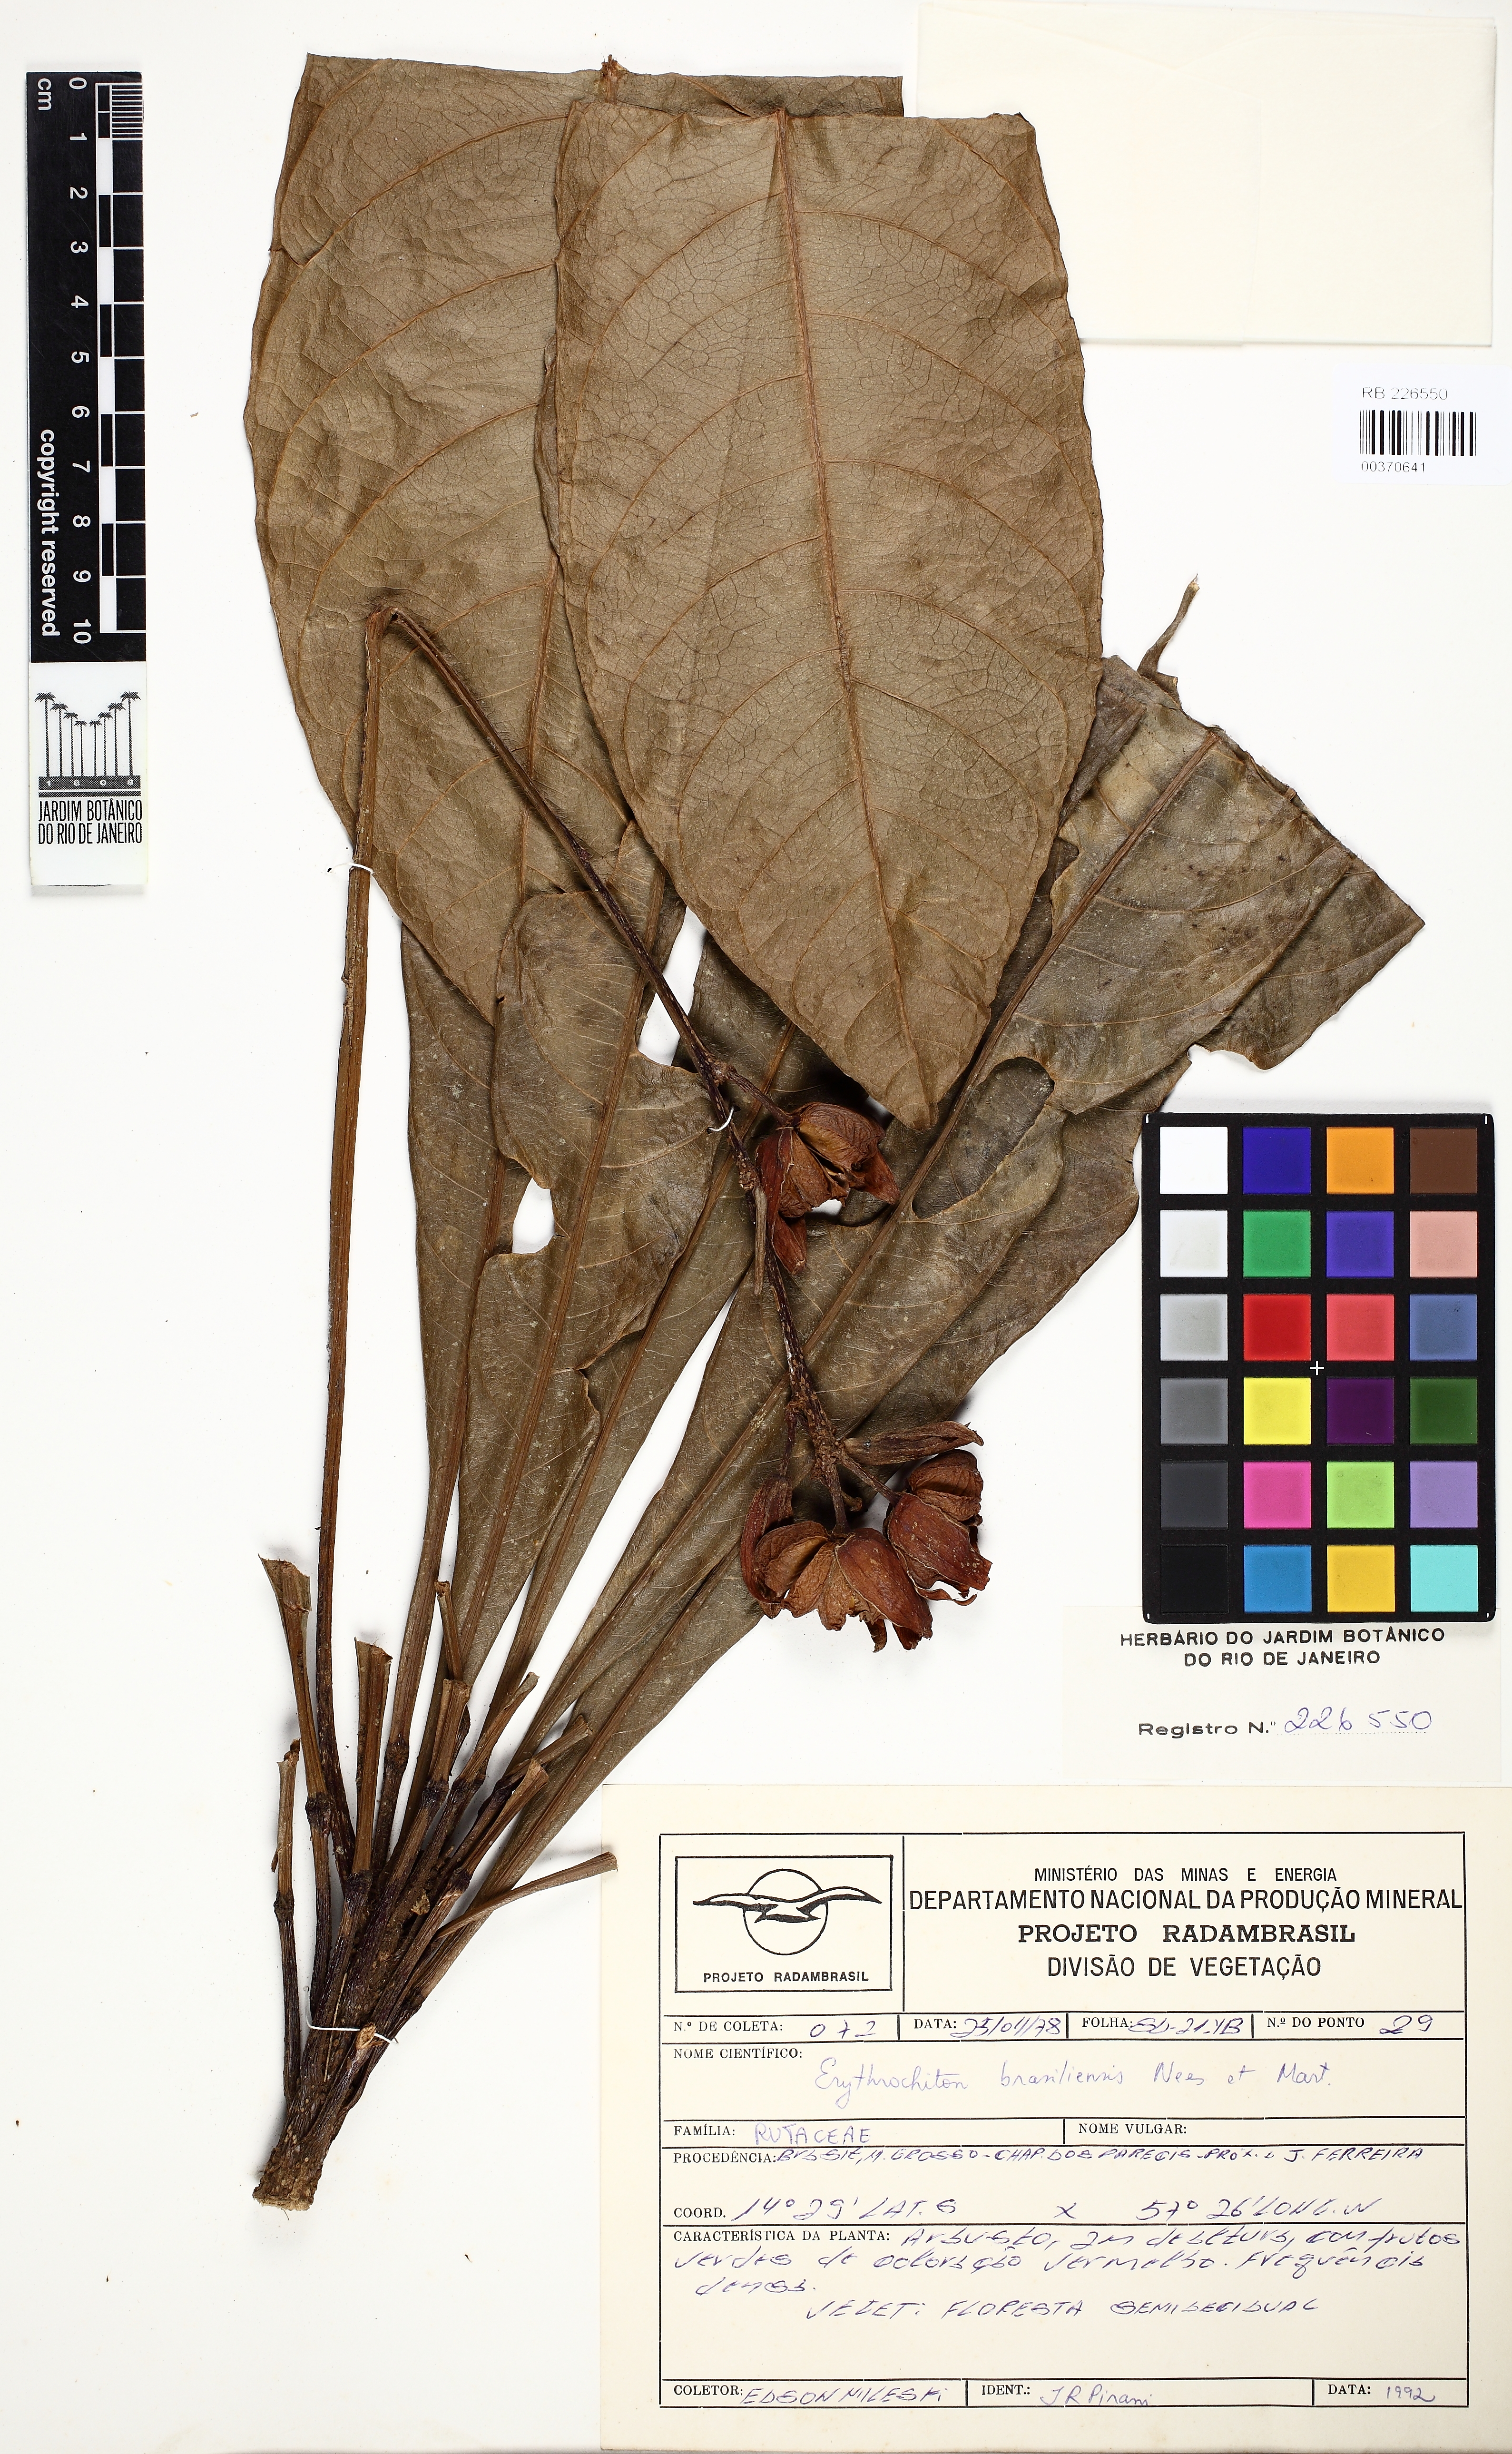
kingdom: Plantae
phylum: Tracheophyta
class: Magnoliopsida
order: Sapindales
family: Rutaceae
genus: Erythrochiton
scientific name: Erythrochiton brasiliensis
